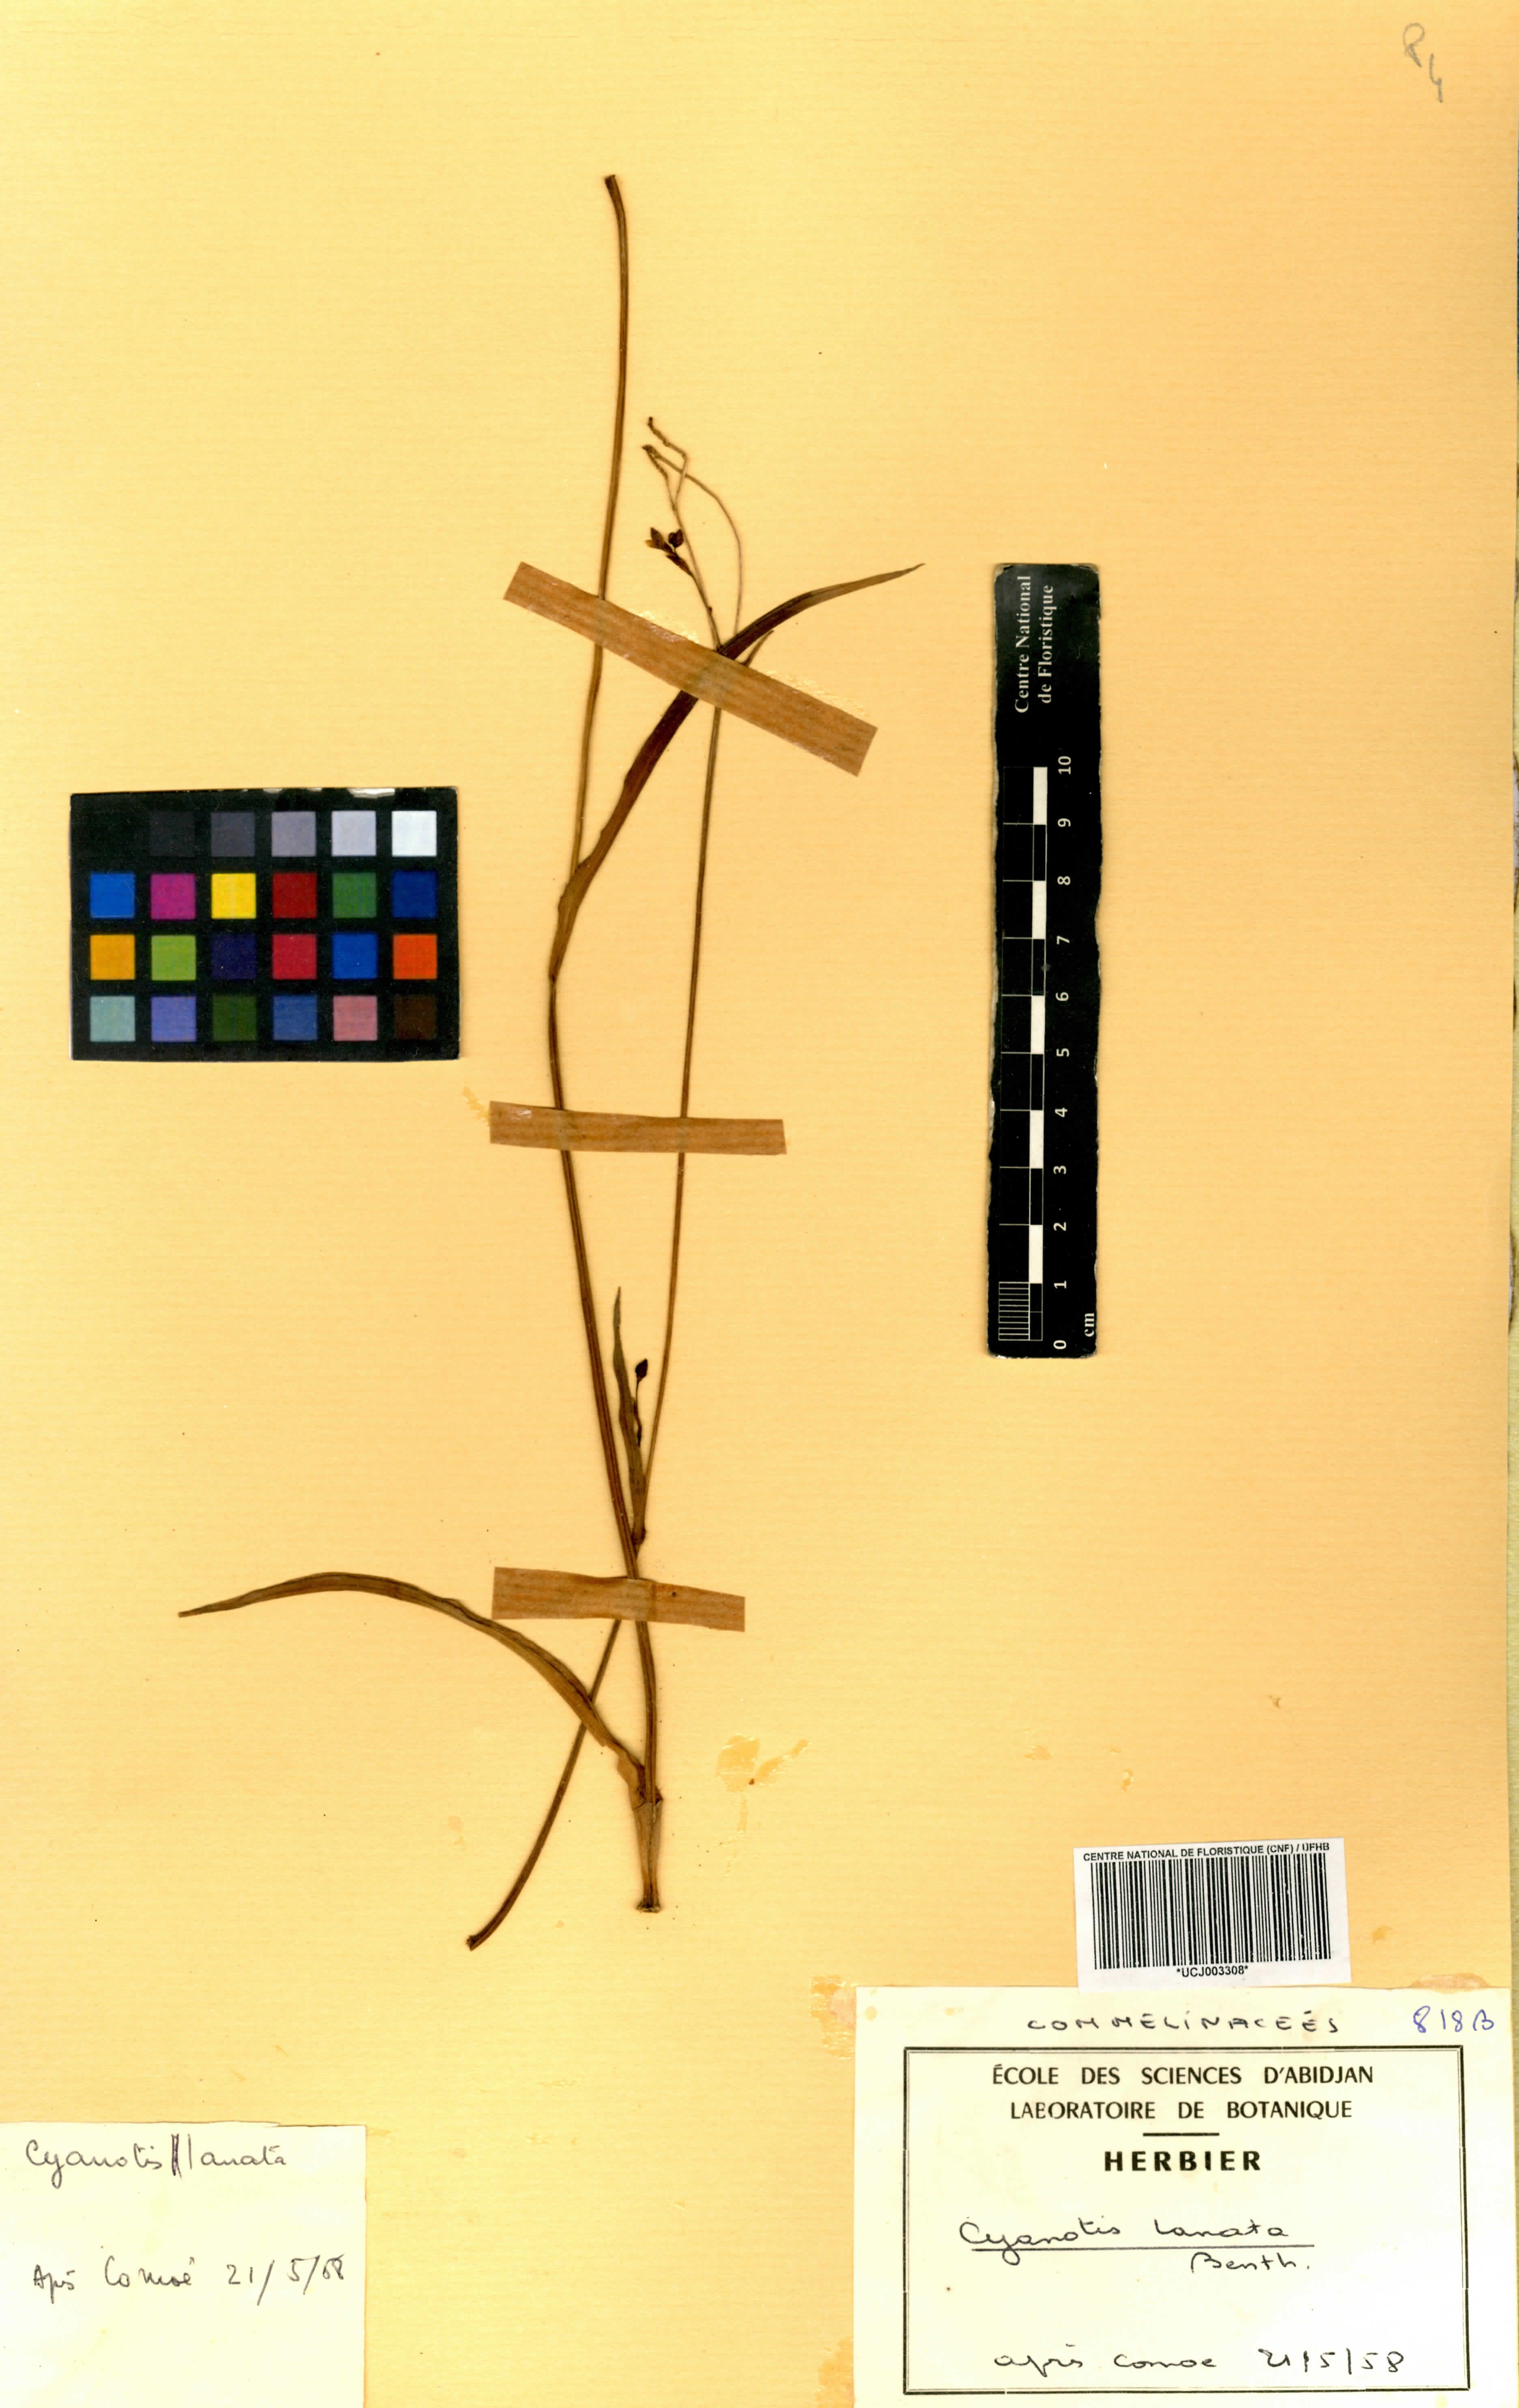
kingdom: Plantae
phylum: Tracheophyta
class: Liliopsida
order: Commelinales
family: Commelinaceae
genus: Cyanotis
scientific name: Cyanotis lanata
